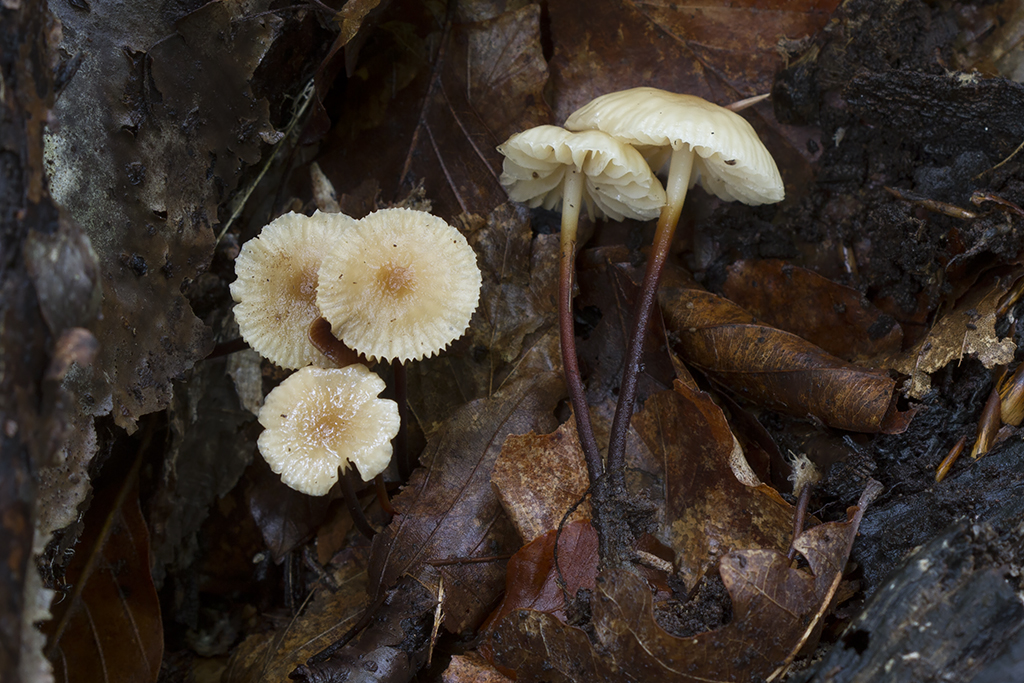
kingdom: Fungi
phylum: Basidiomycota
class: Agaricomycetes
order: Agaricales
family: Marasmiaceae
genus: Marasmius
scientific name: Marasmius torquescens
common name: filtfodet bruskhat
